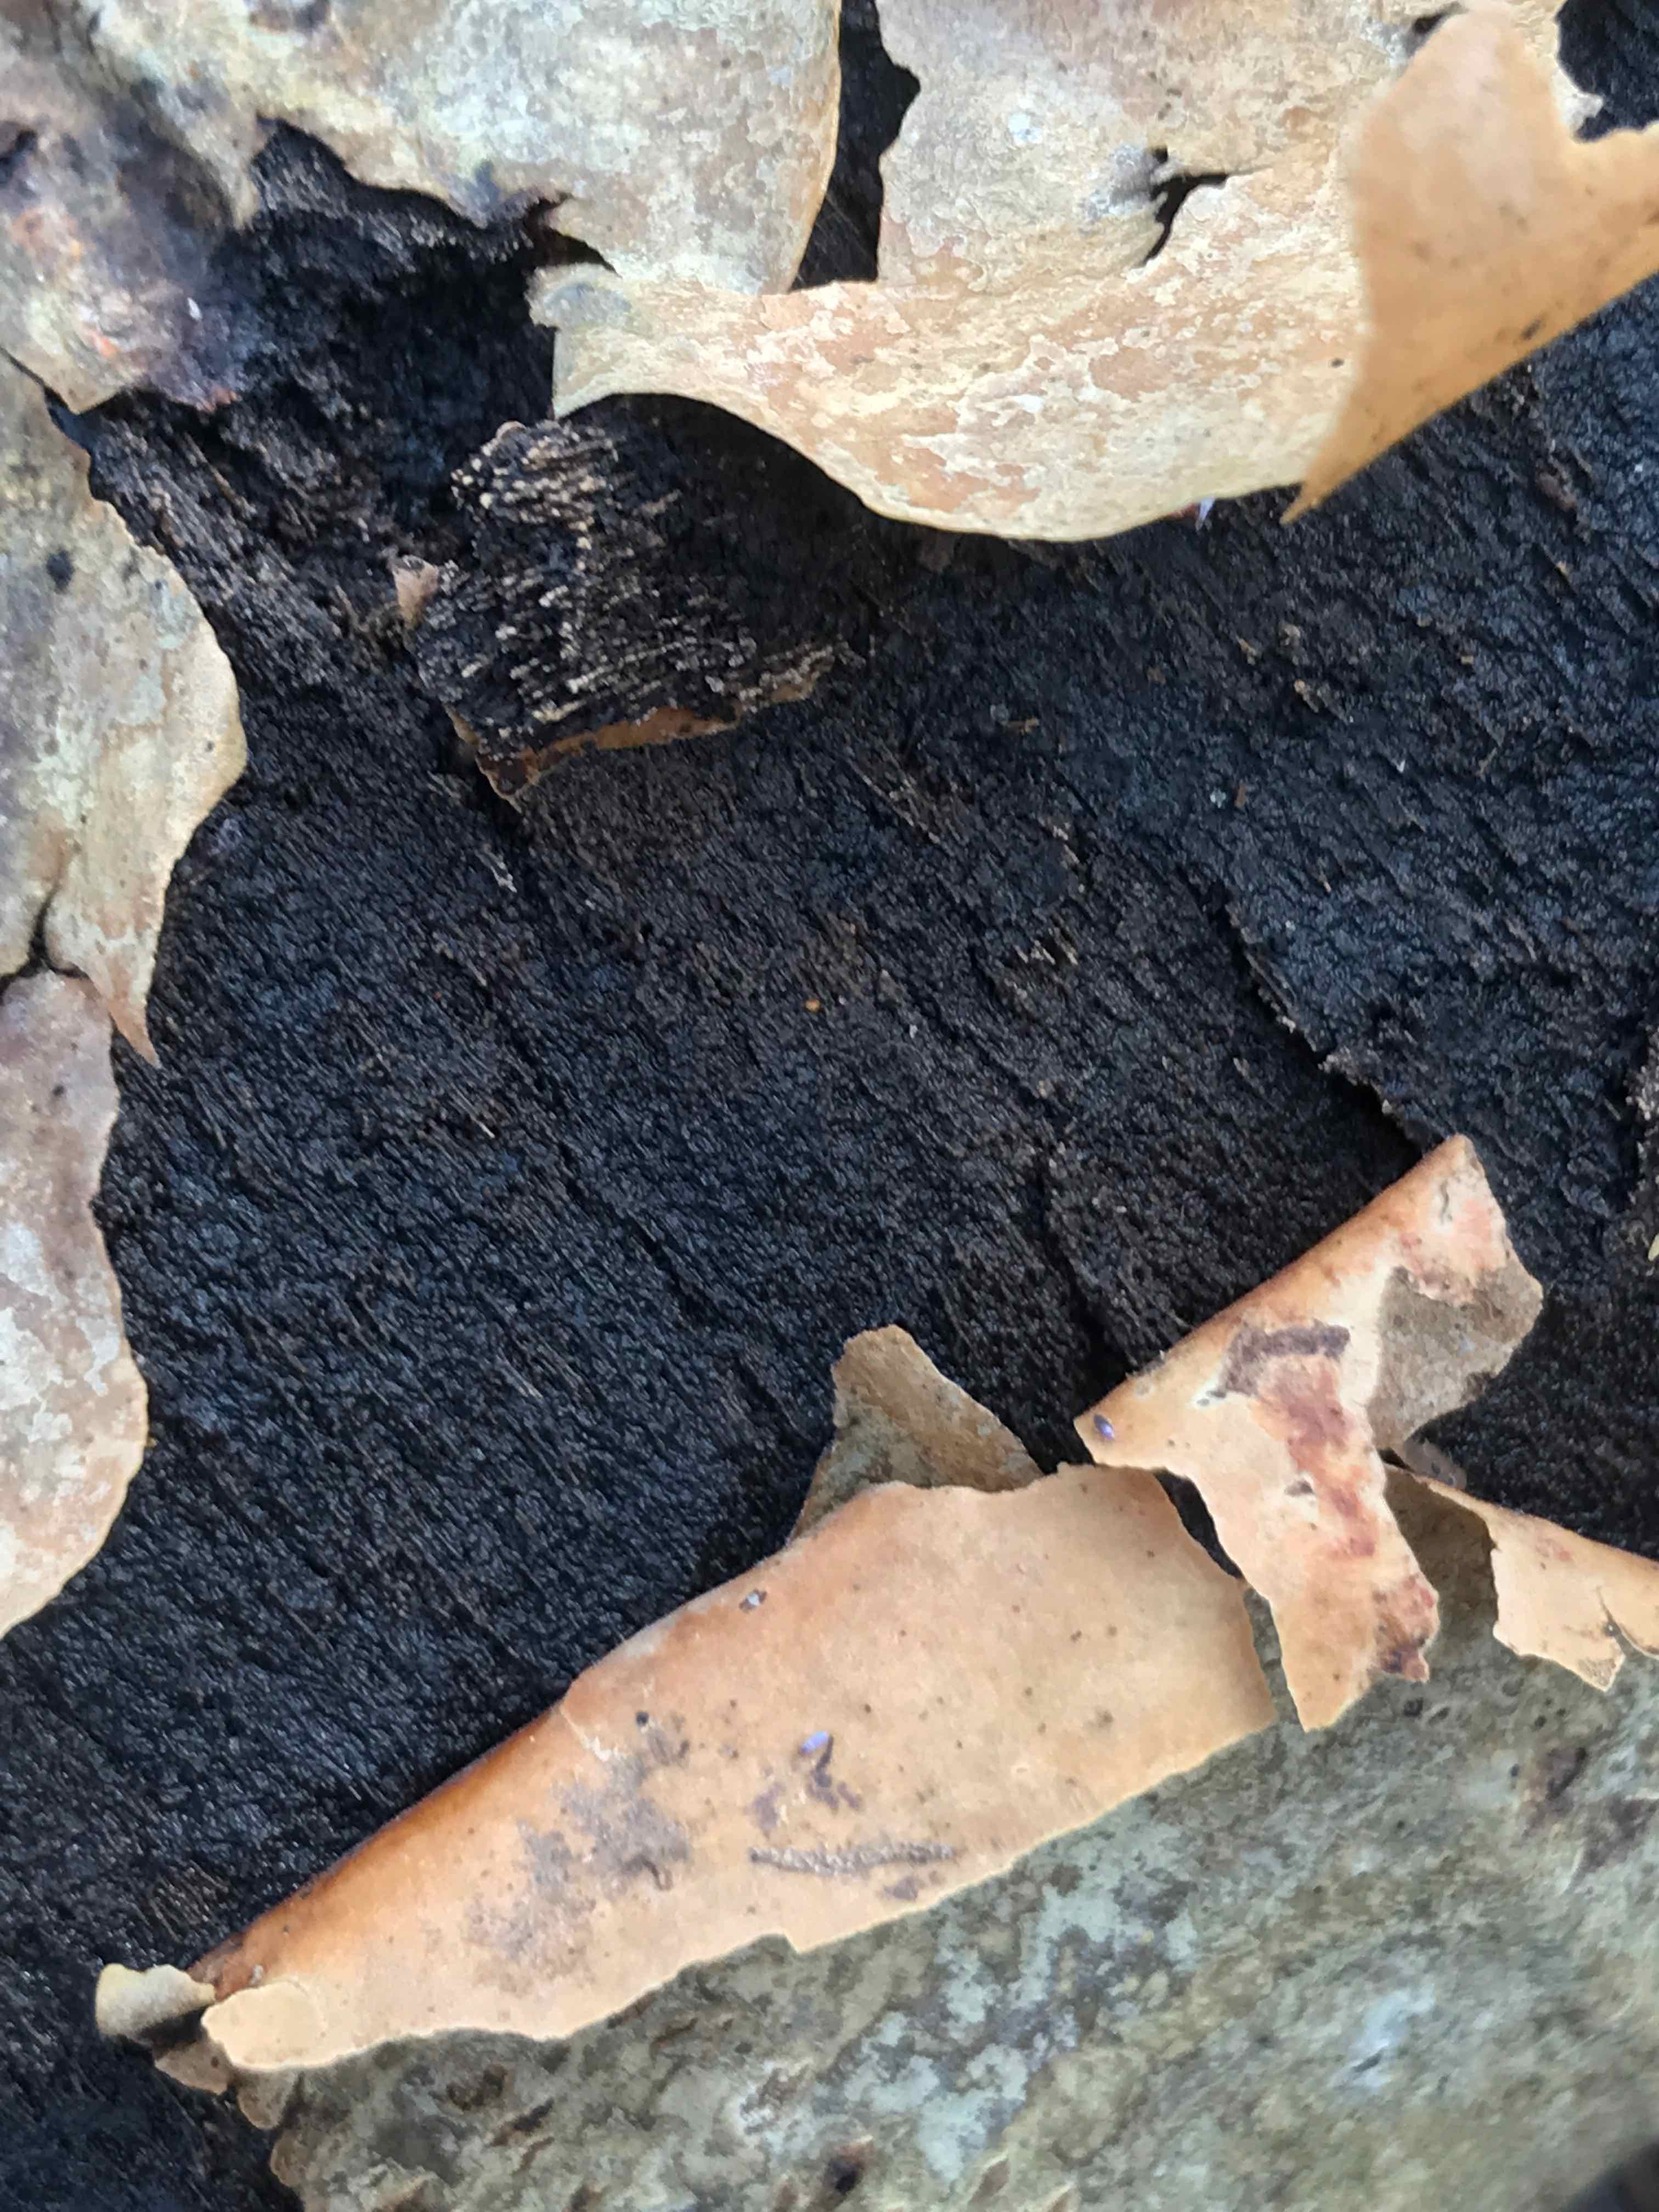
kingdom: Fungi
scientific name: Fungi
